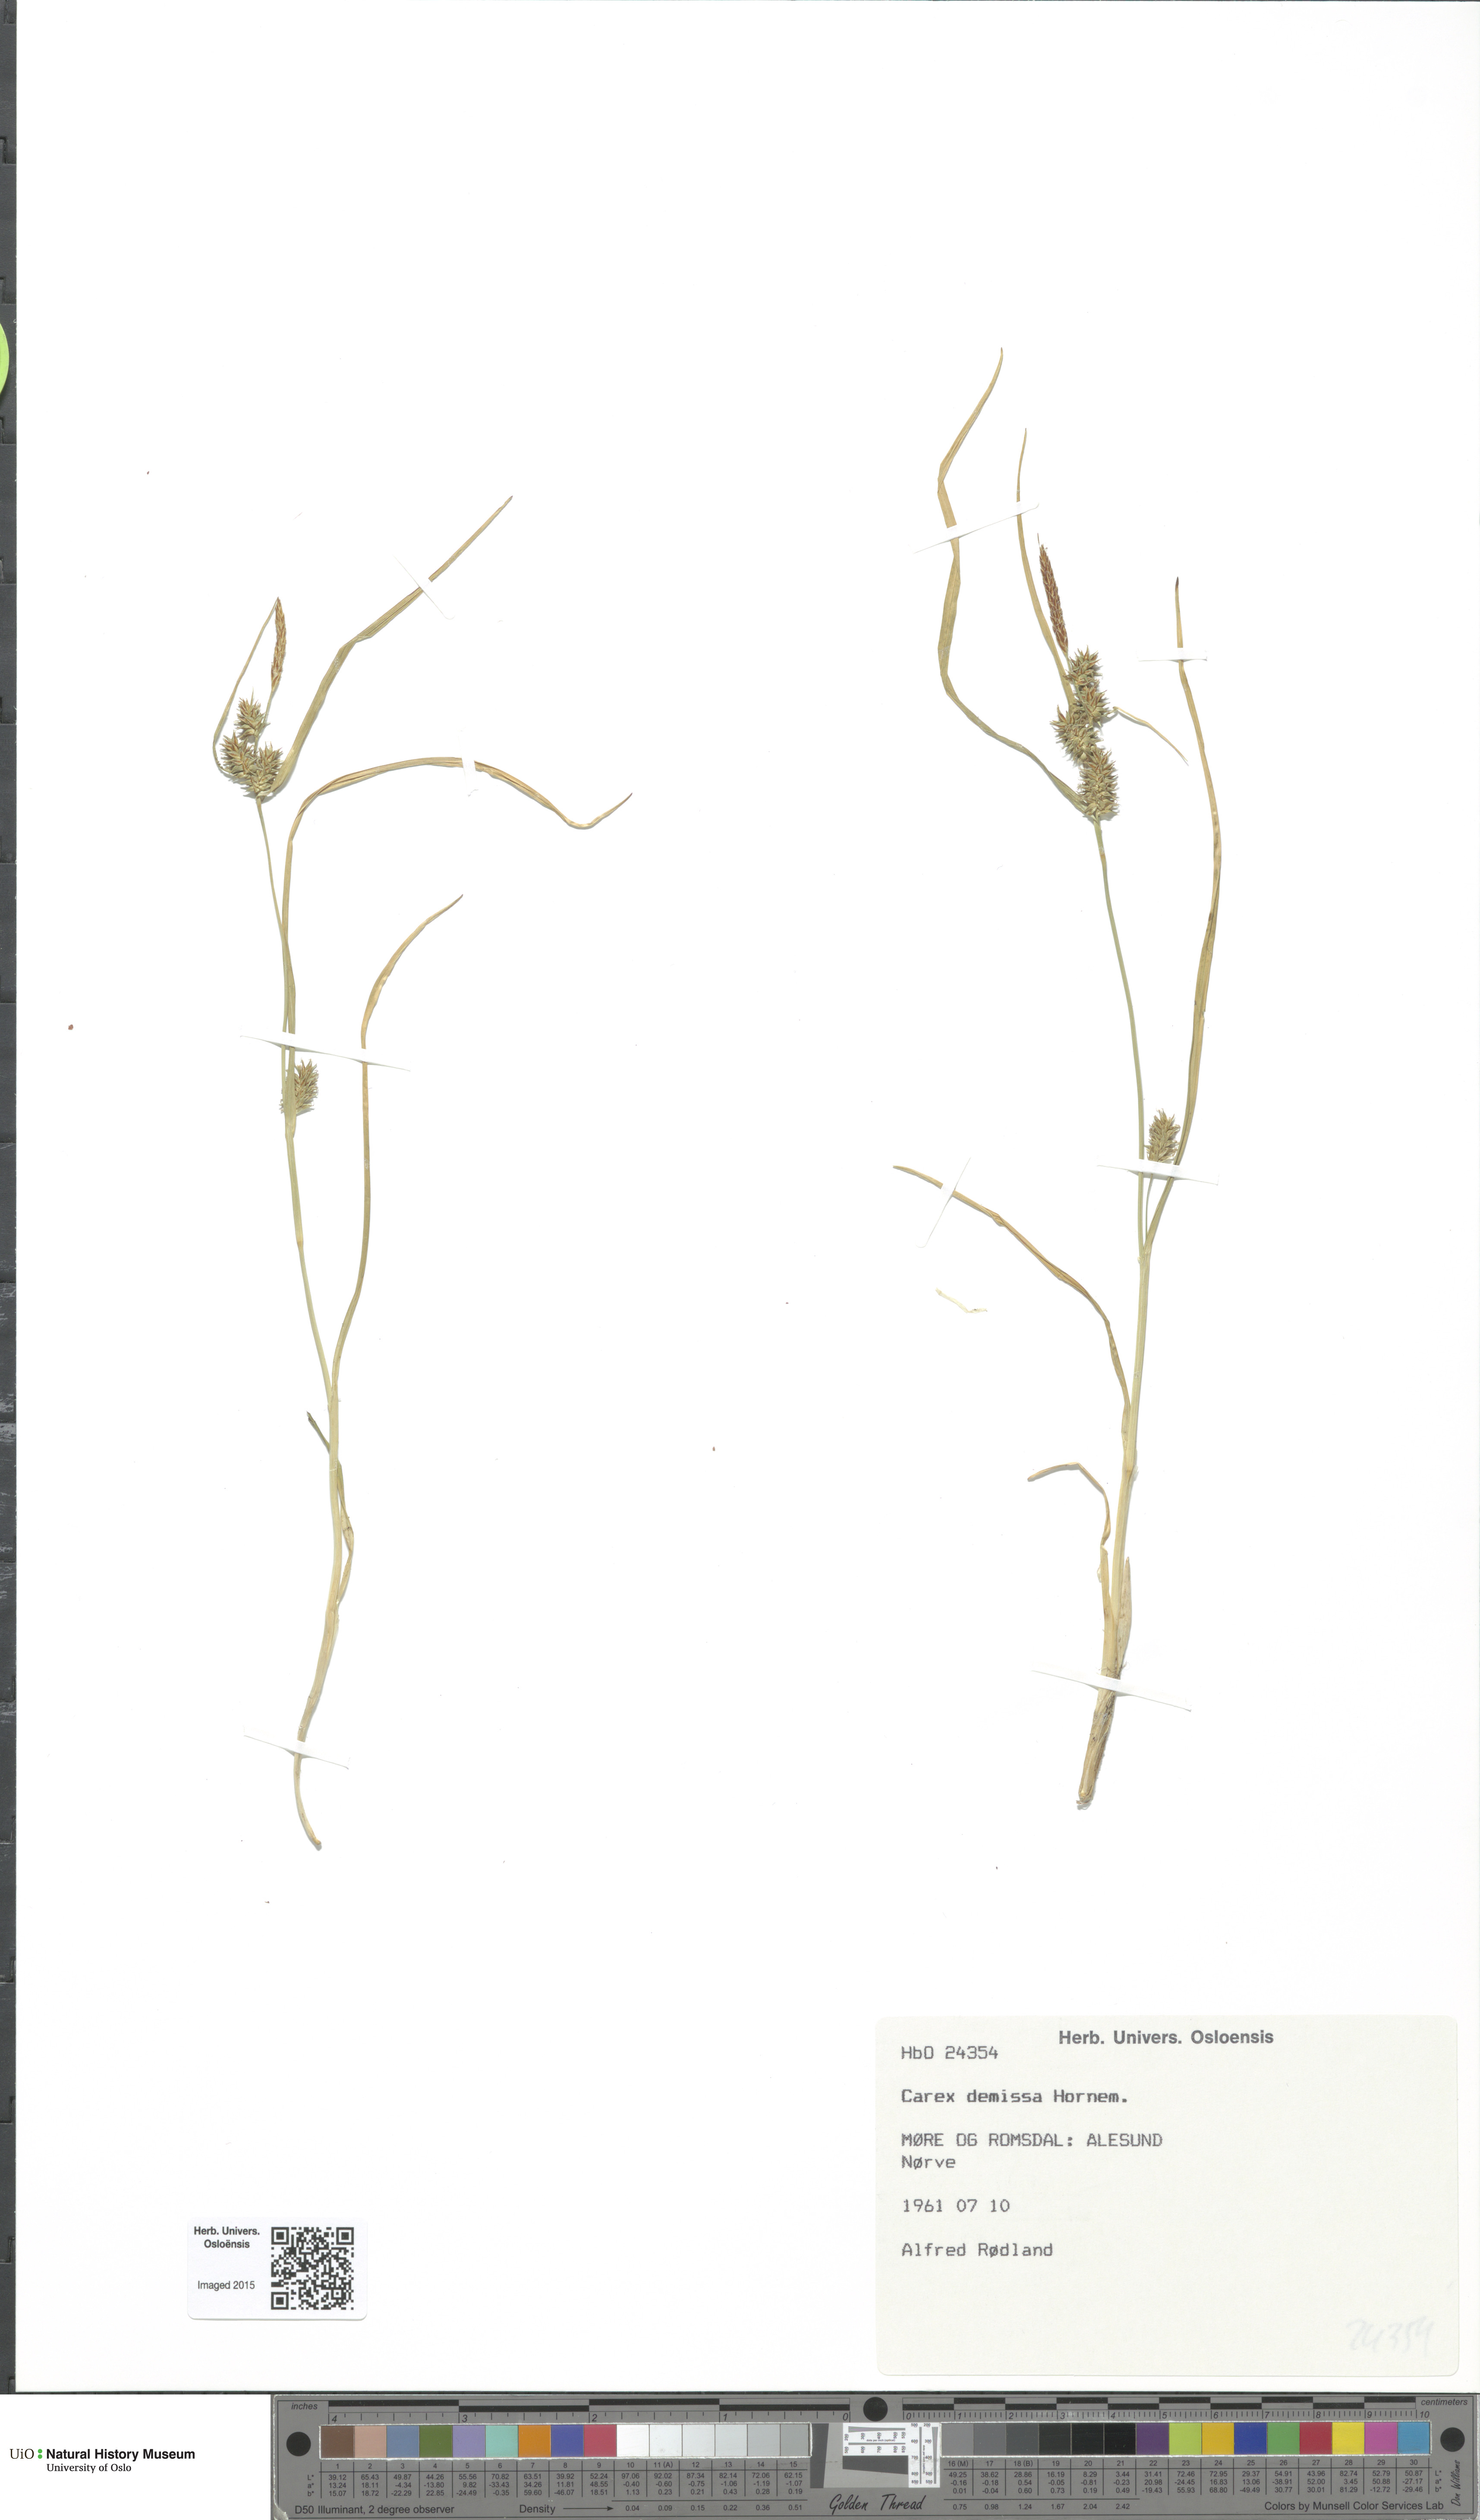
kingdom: Plantae
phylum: Tracheophyta
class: Liliopsida
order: Poales
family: Cyperaceae
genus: Carex
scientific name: Carex demissa
